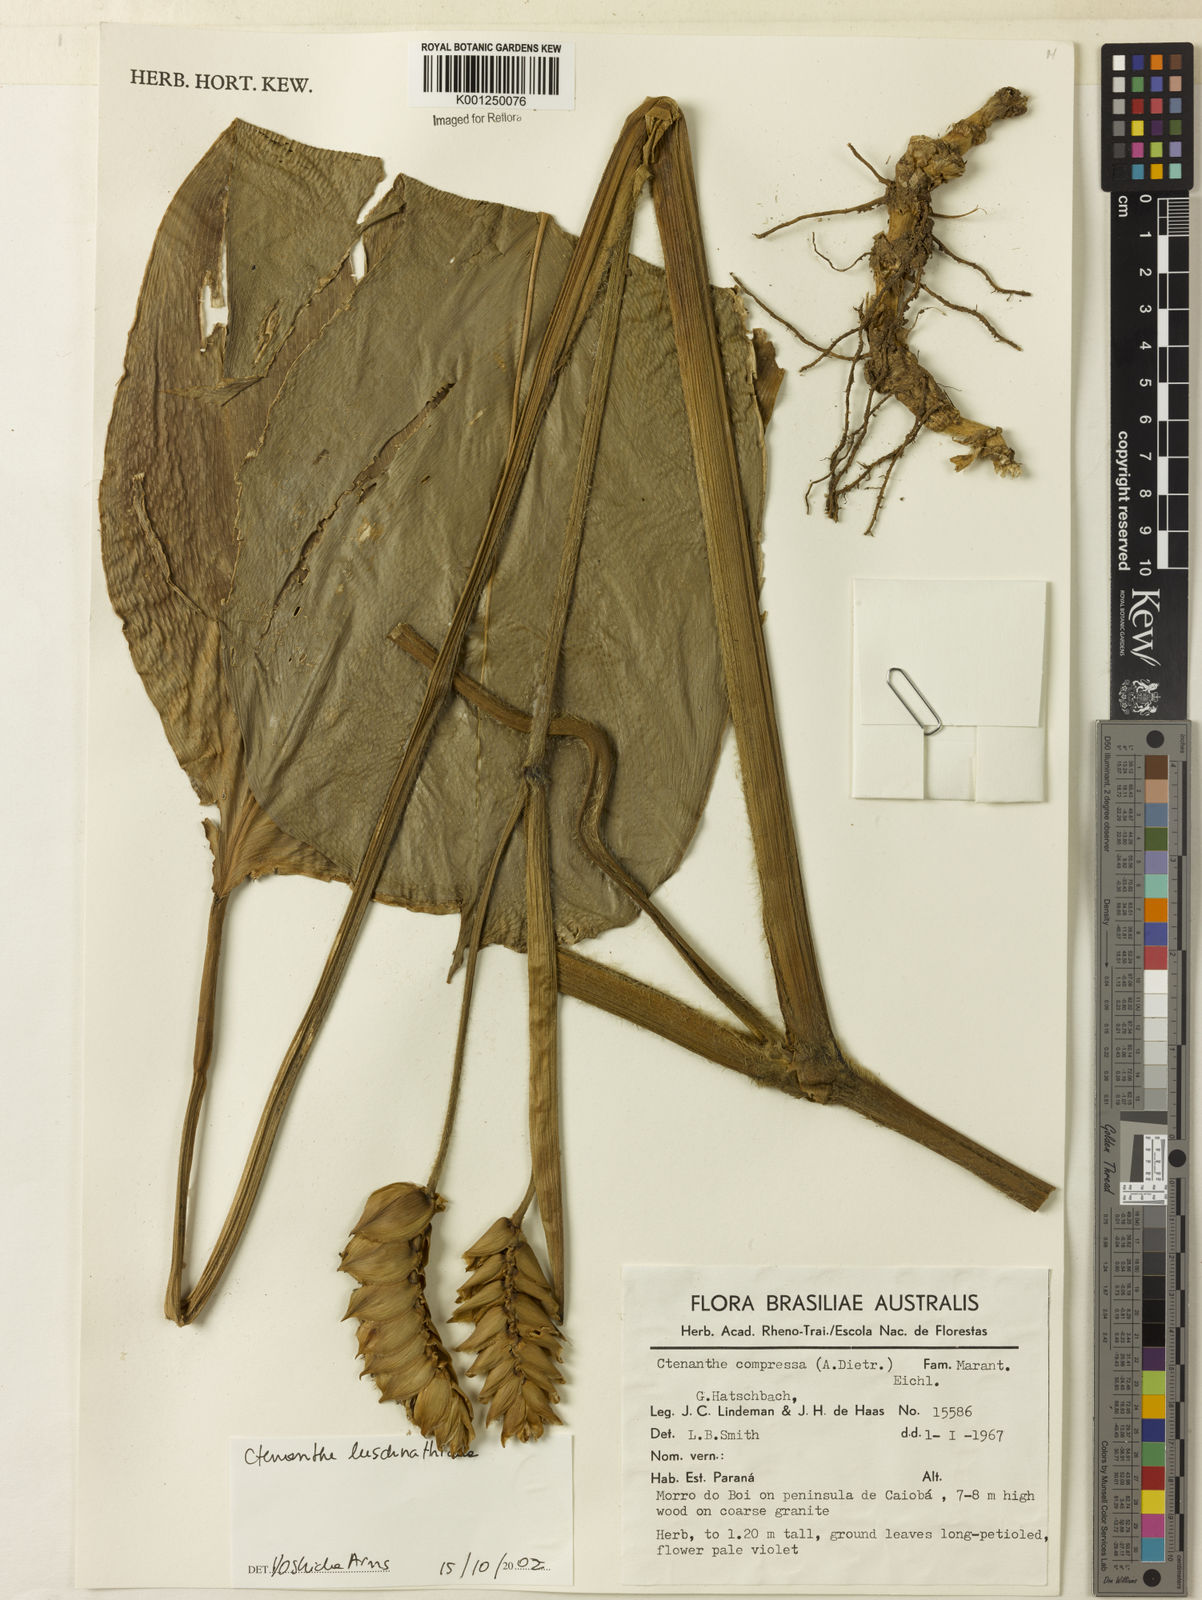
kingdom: Plantae
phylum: Tracheophyta
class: Liliopsida
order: Zingiberales
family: Marantaceae
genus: Ctenanthe
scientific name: Ctenanthe compressa
